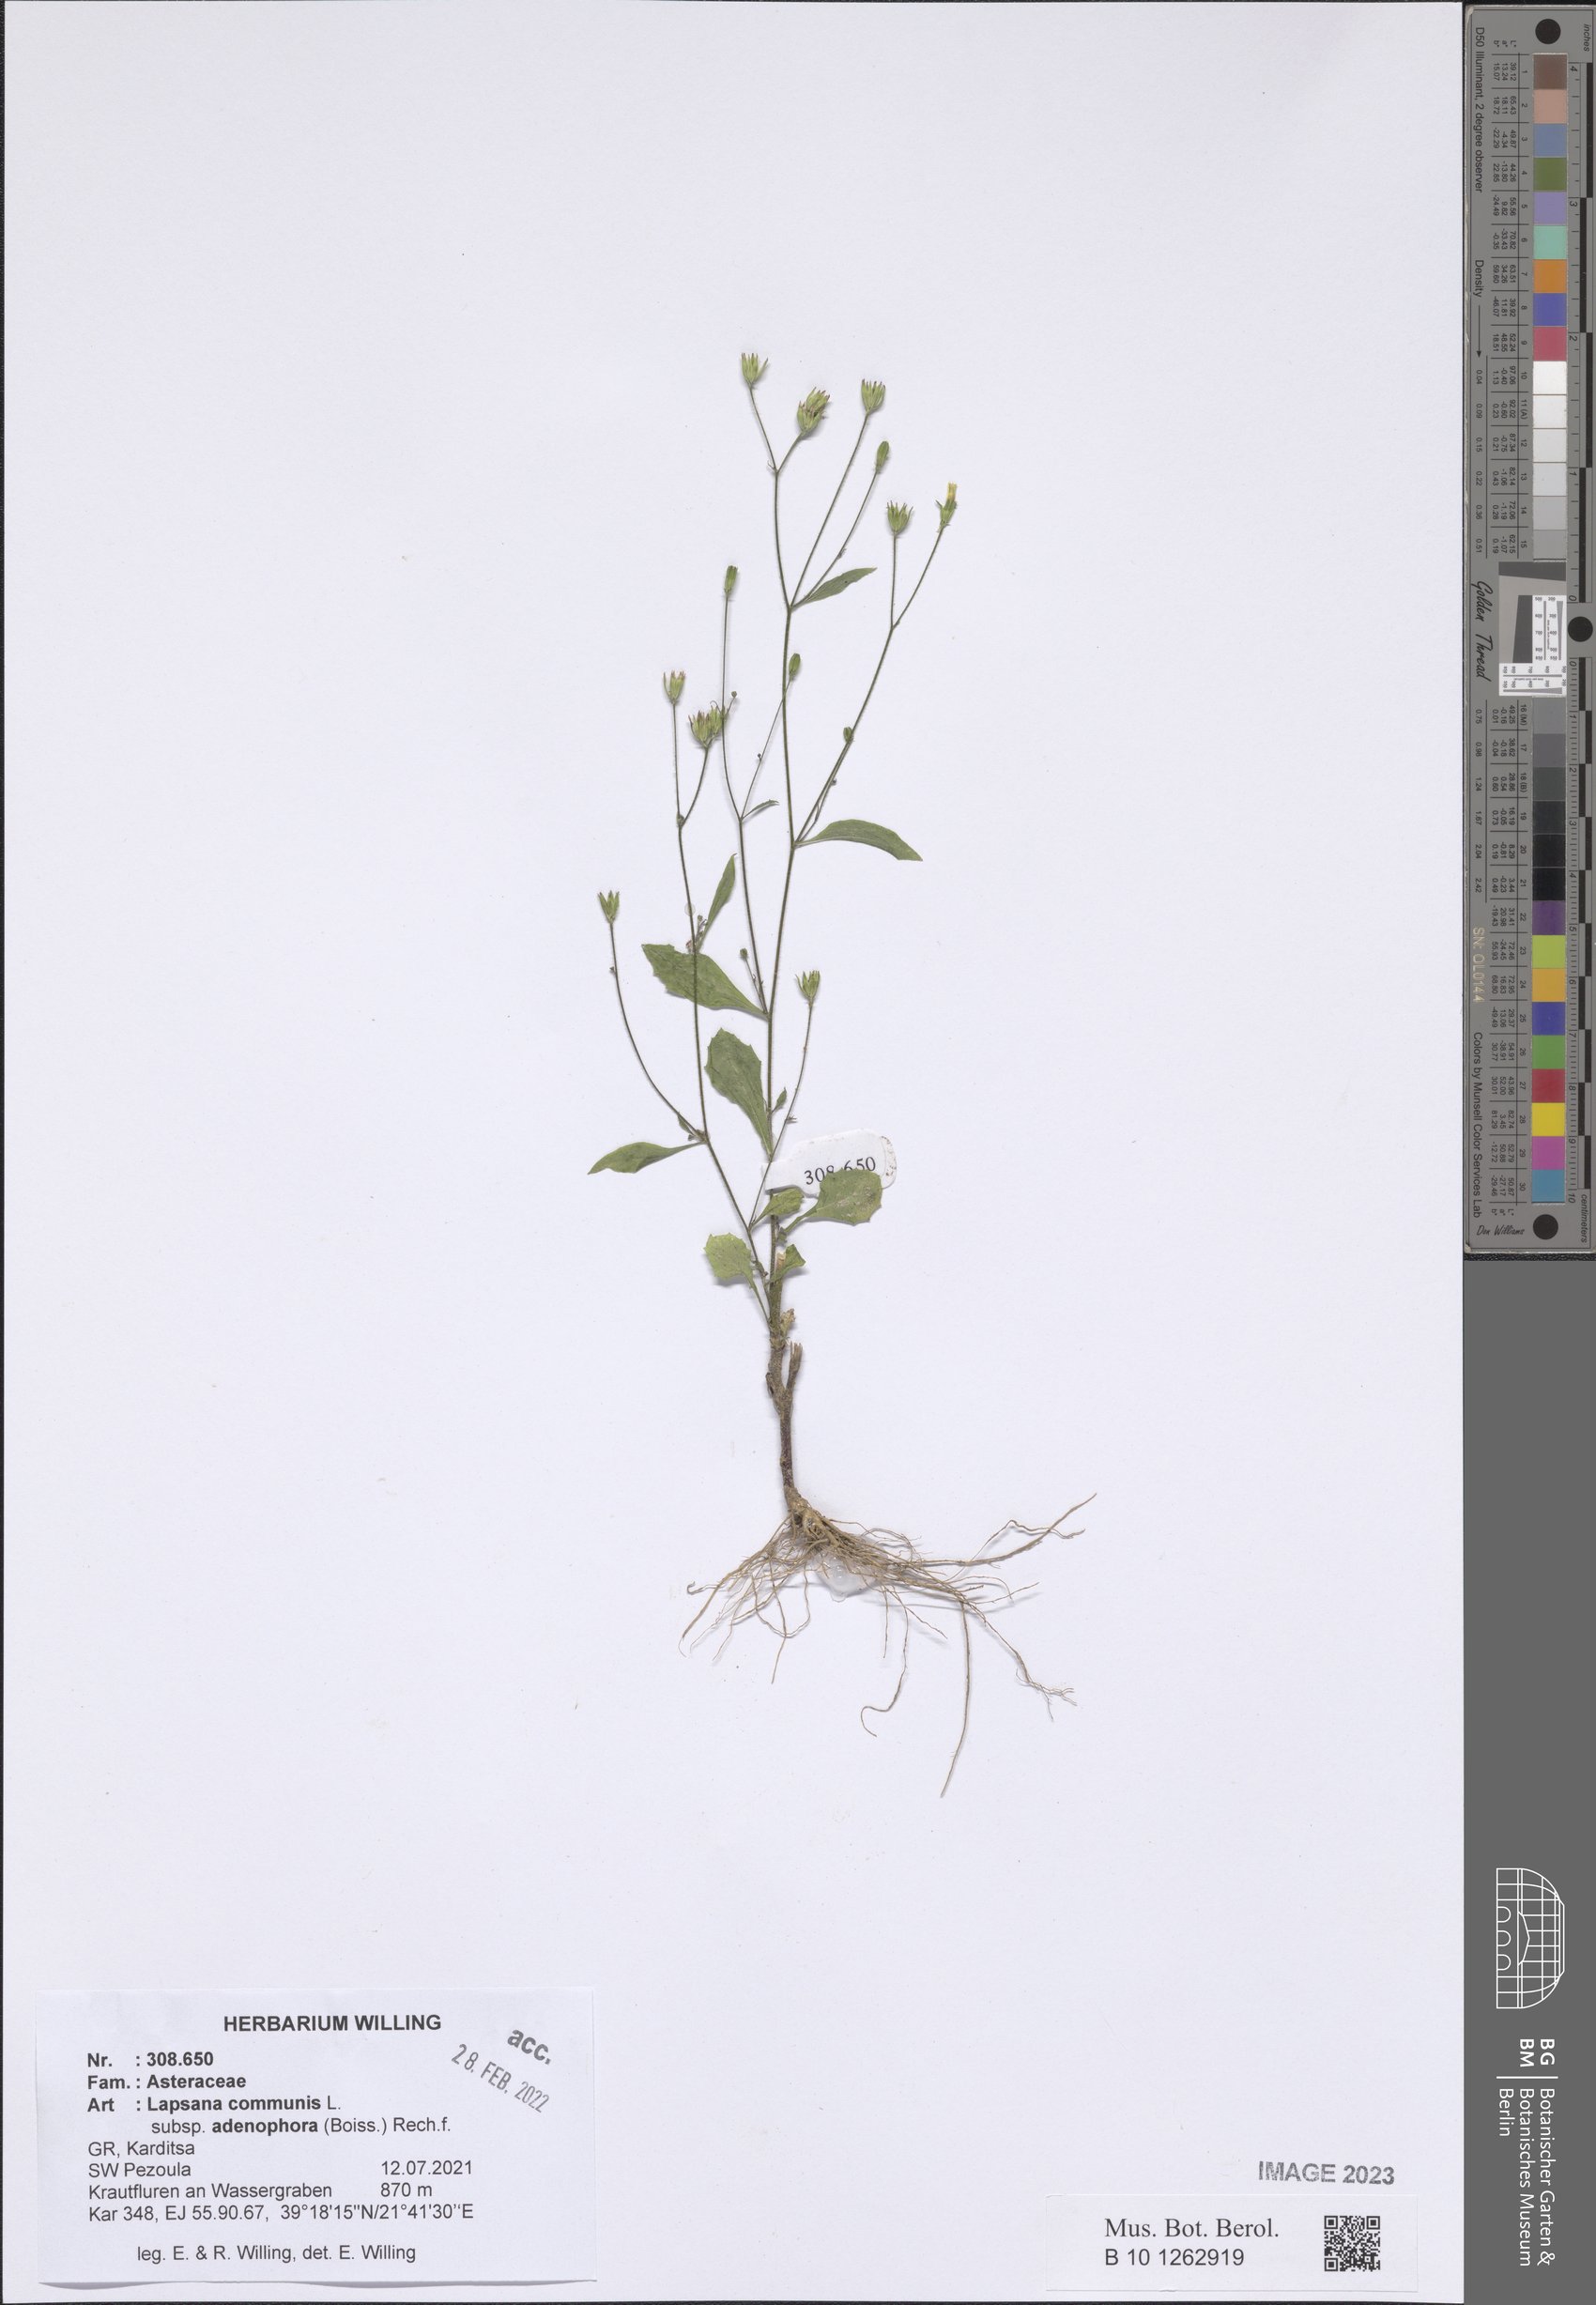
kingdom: Plantae
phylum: Tracheophyta
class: Magnoliopsida
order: Asterales
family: Asteraceae
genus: Lapsana
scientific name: Lapsana communis
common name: Nipplewort
